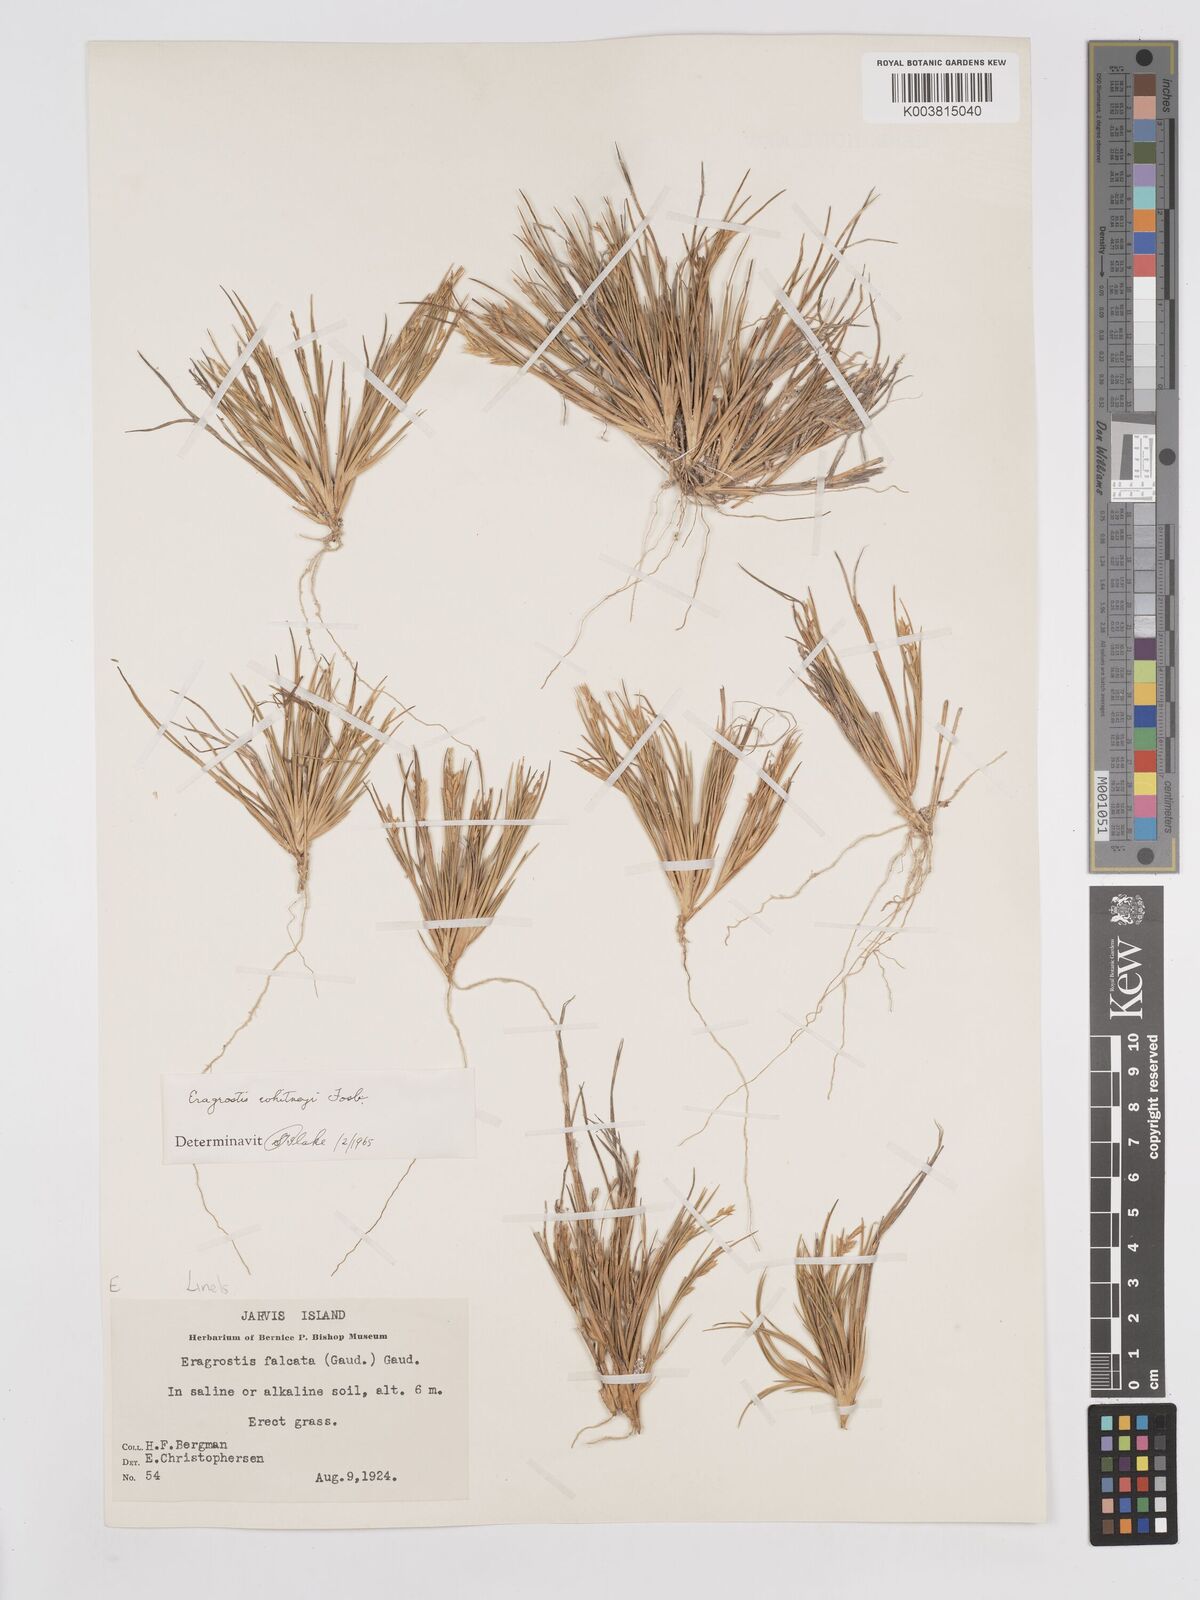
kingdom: Plantae
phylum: Tracheophyta
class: Liliopsida
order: Poales
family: Poaceae
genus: Eragrostis
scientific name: Eragrostis paupera
